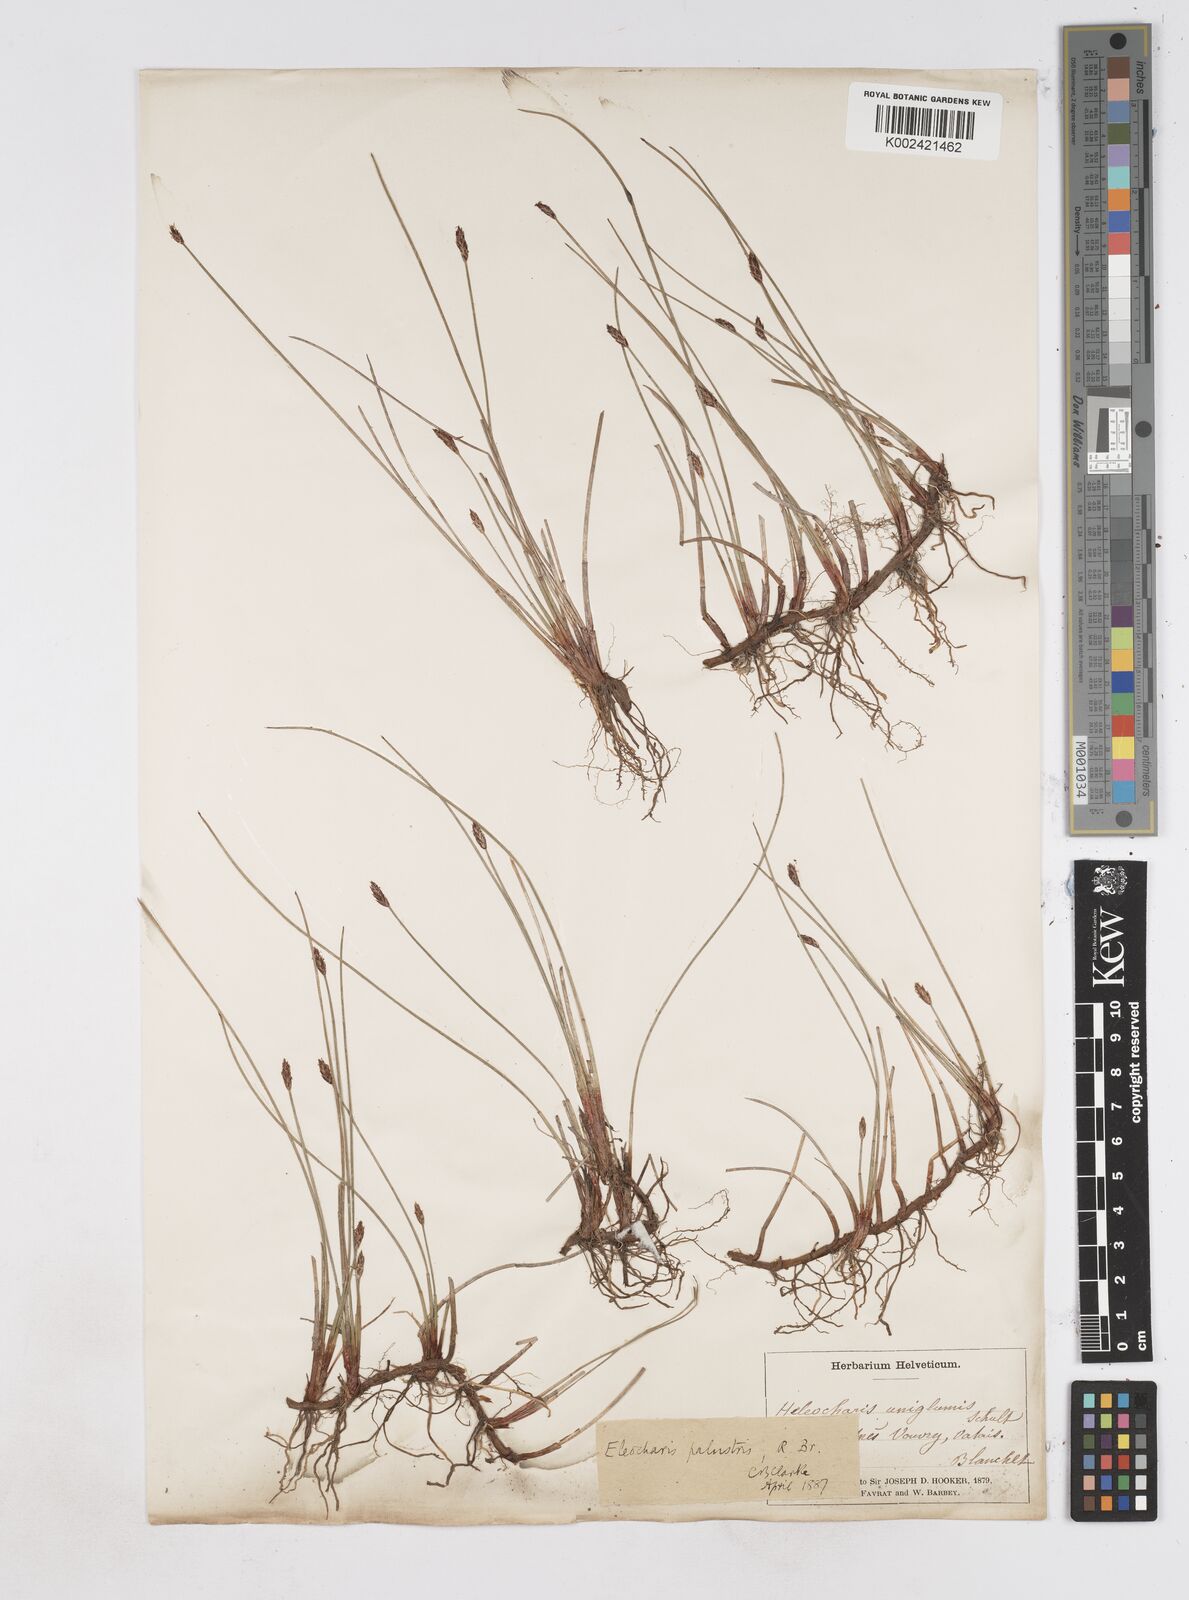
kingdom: Plantae
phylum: Tracheophyta
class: Liliopsida
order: Poales
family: Cyperaceae
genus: Eleocharis
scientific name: Eleocharis uniglumis
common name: Slender spike-rush
